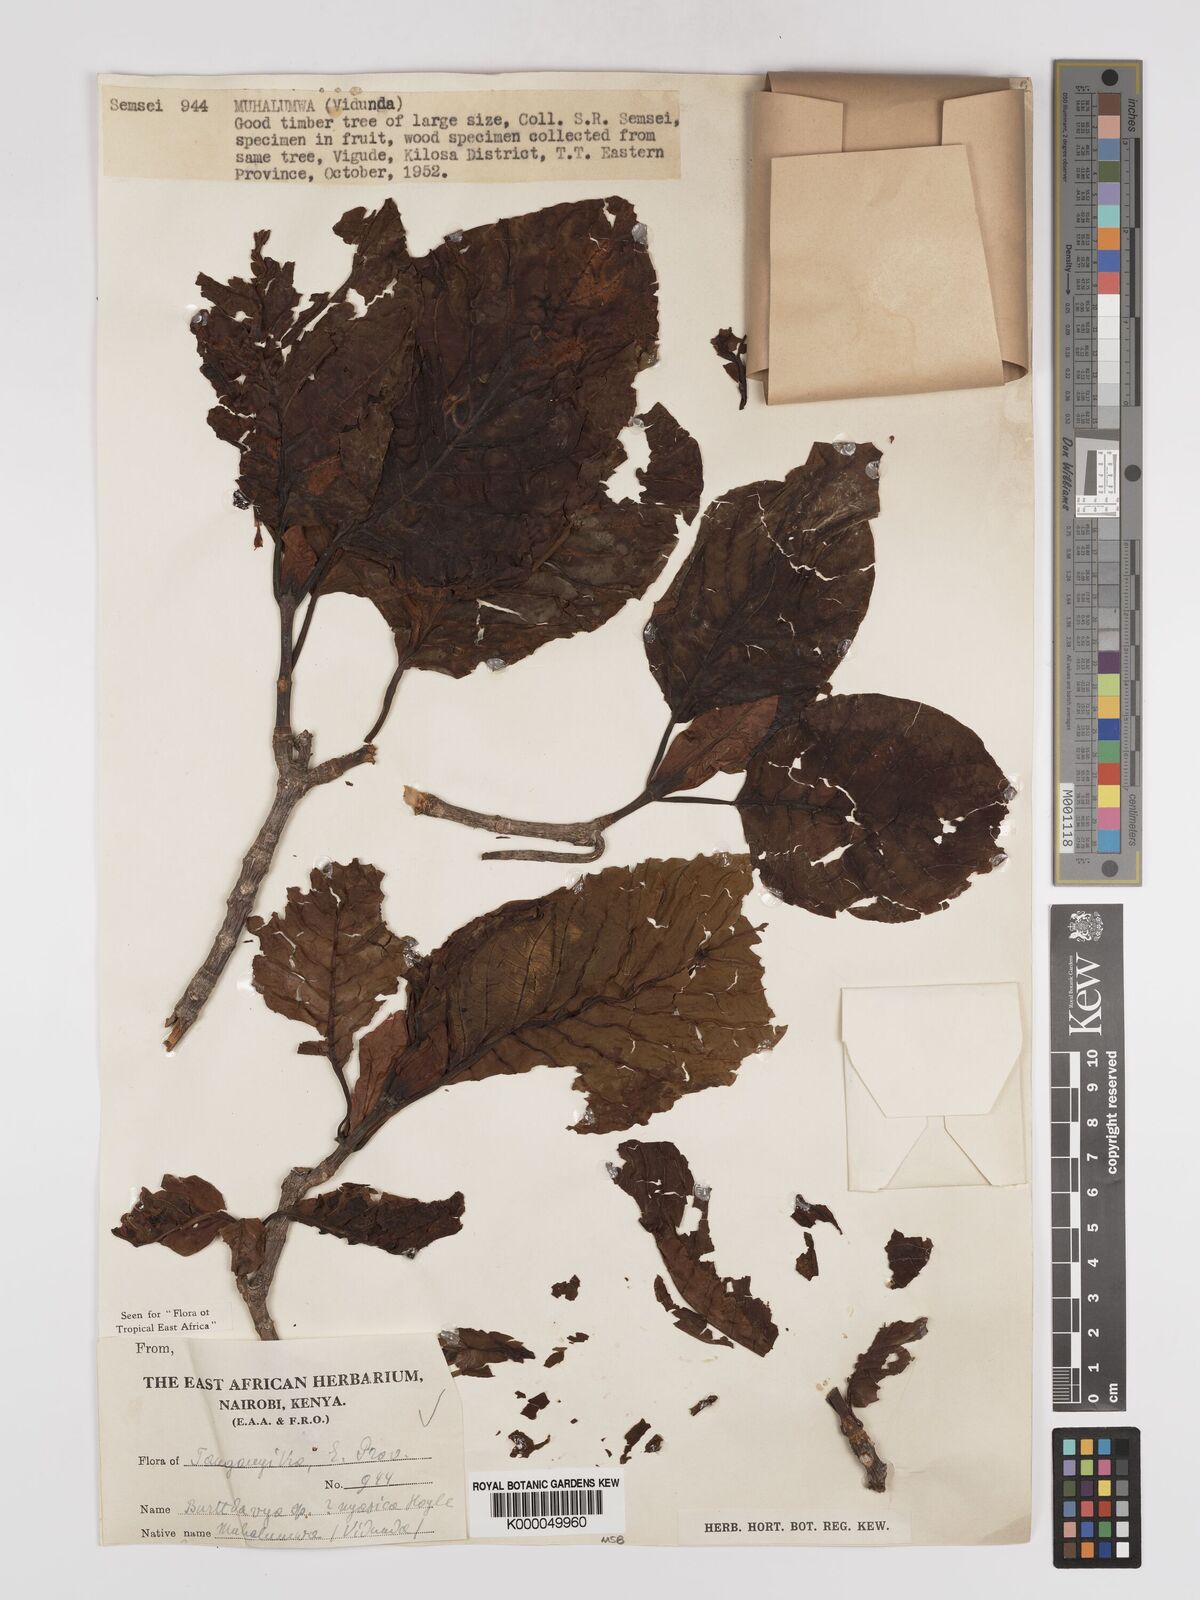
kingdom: Plantae
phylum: Tracheophyta
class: Magnoliopsida
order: Gentianales
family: Rubiaceae
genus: Nauclea
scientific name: Nauclea
